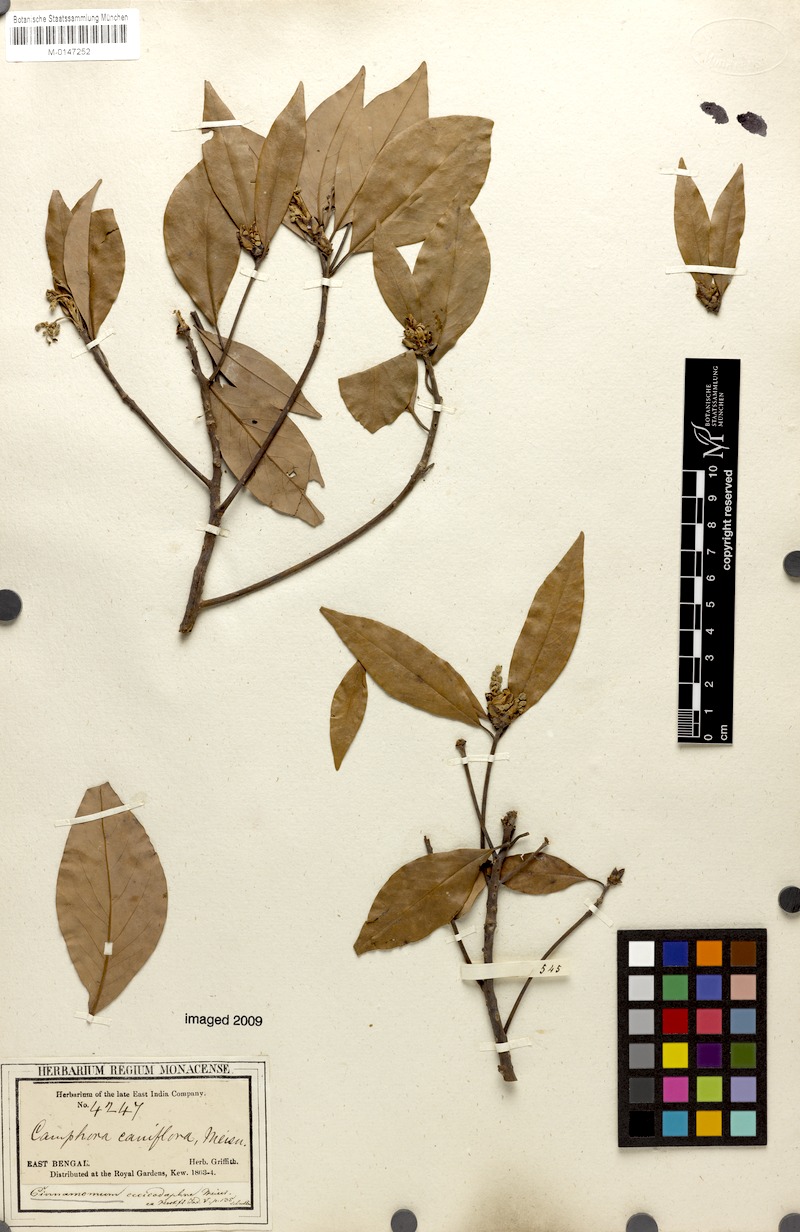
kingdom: Plantae
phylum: Tracheophyta
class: Magnoliopsida
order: Laurales
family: Lauraceae
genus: Cinnamomum
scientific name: Cinnamomum glaucescens
